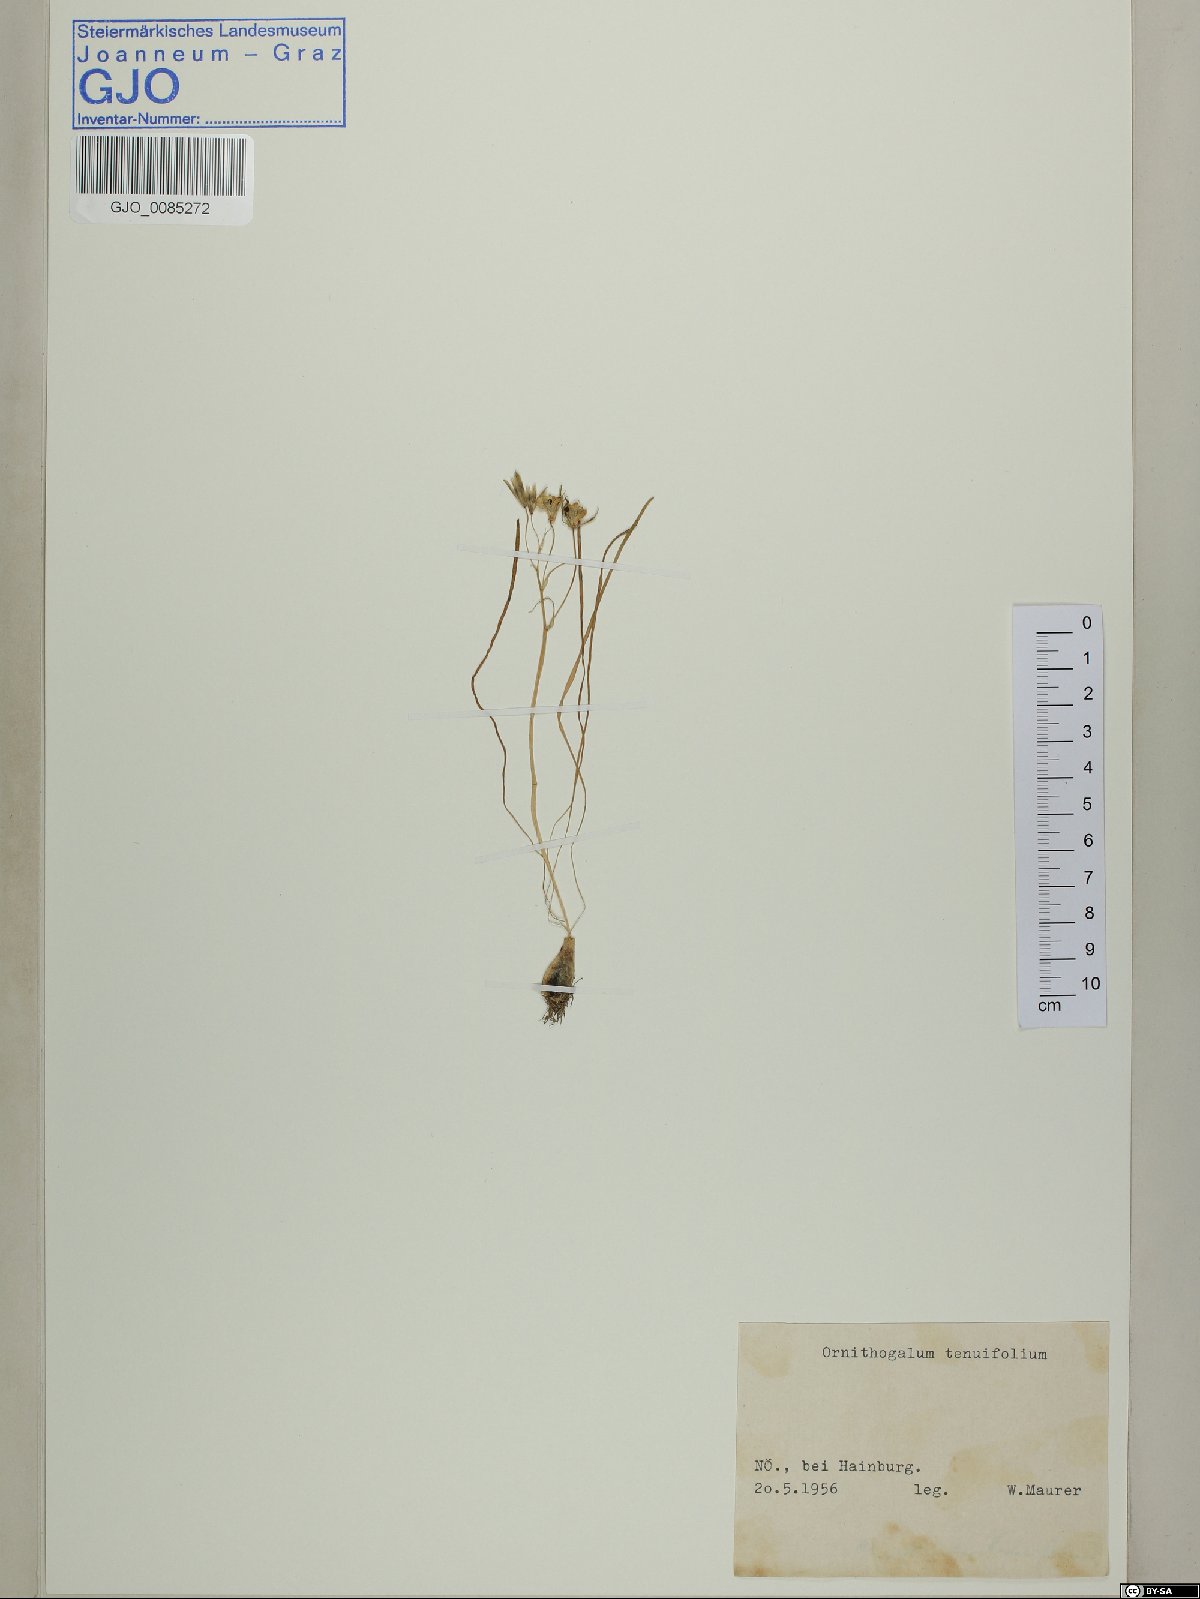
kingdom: Plantae
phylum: Tracheophyta
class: Liliopsida
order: Asparagales
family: Asparagaceae
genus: Ornithogalum
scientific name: Ornithogalum gussonei
